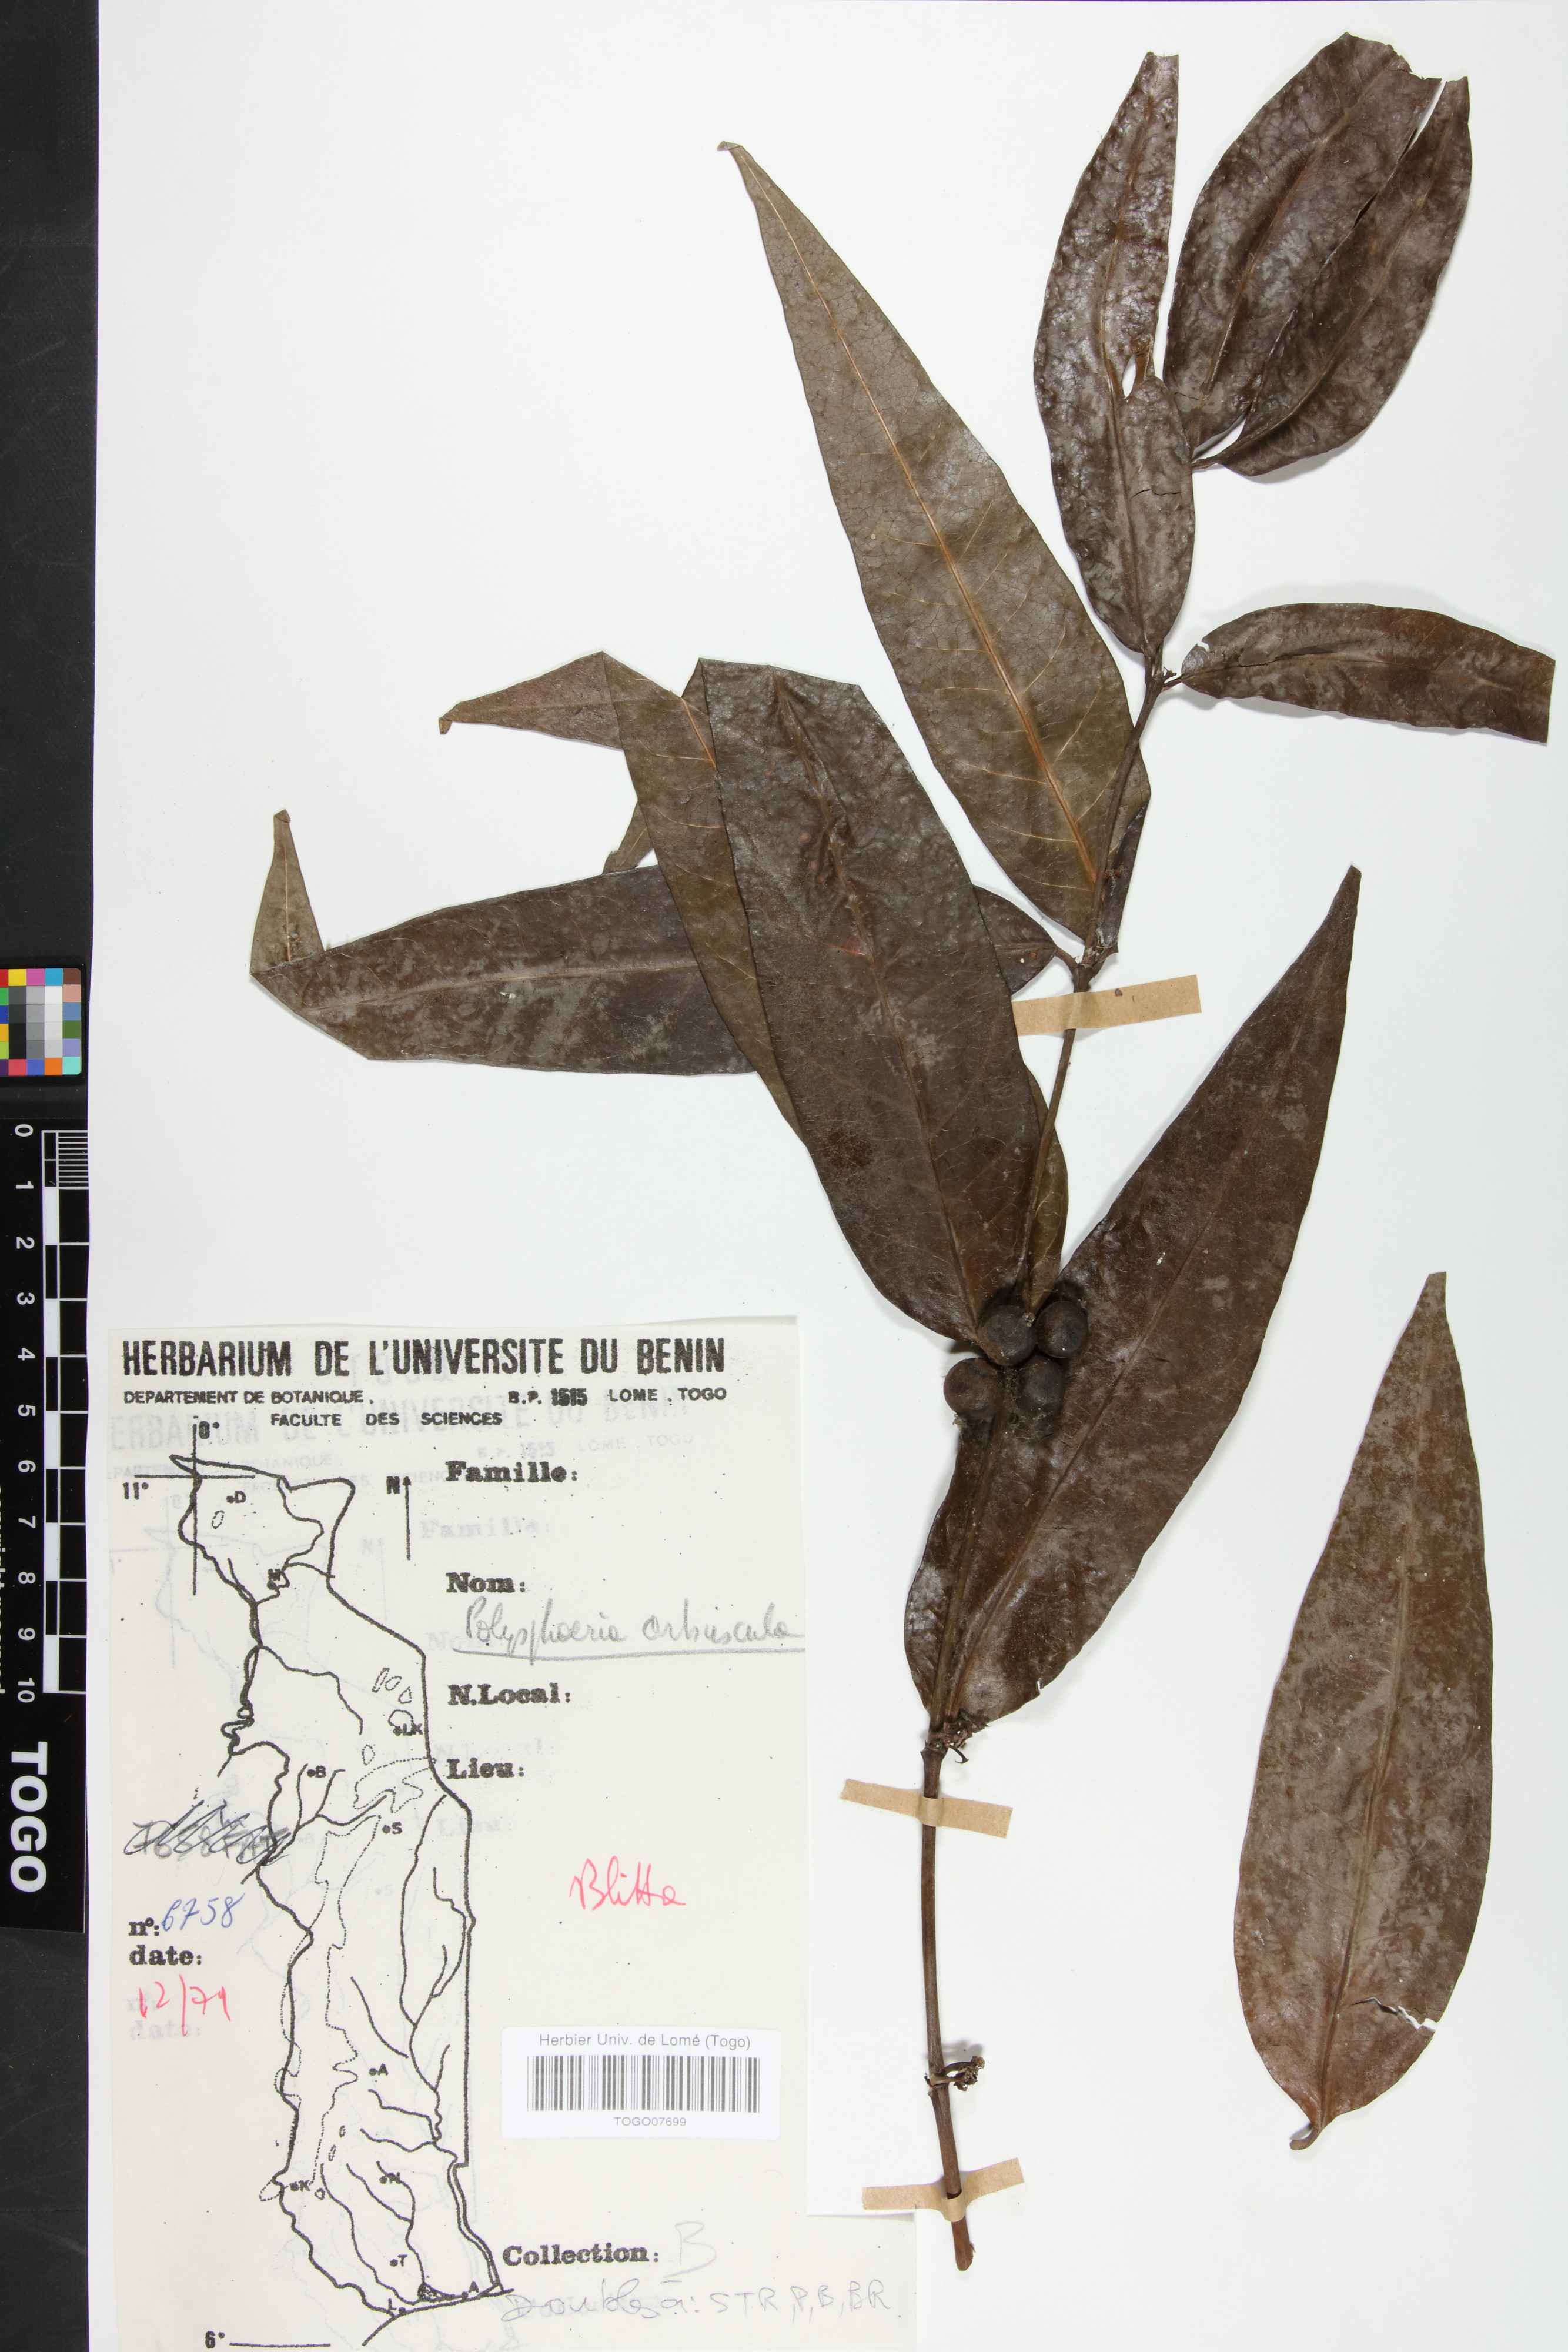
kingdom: Plantae
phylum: Tracheophyta
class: Magnoliopsida
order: Gentianales
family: Rubiaceae
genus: Polysphaeria
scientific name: Polysphaeria arbuscula
